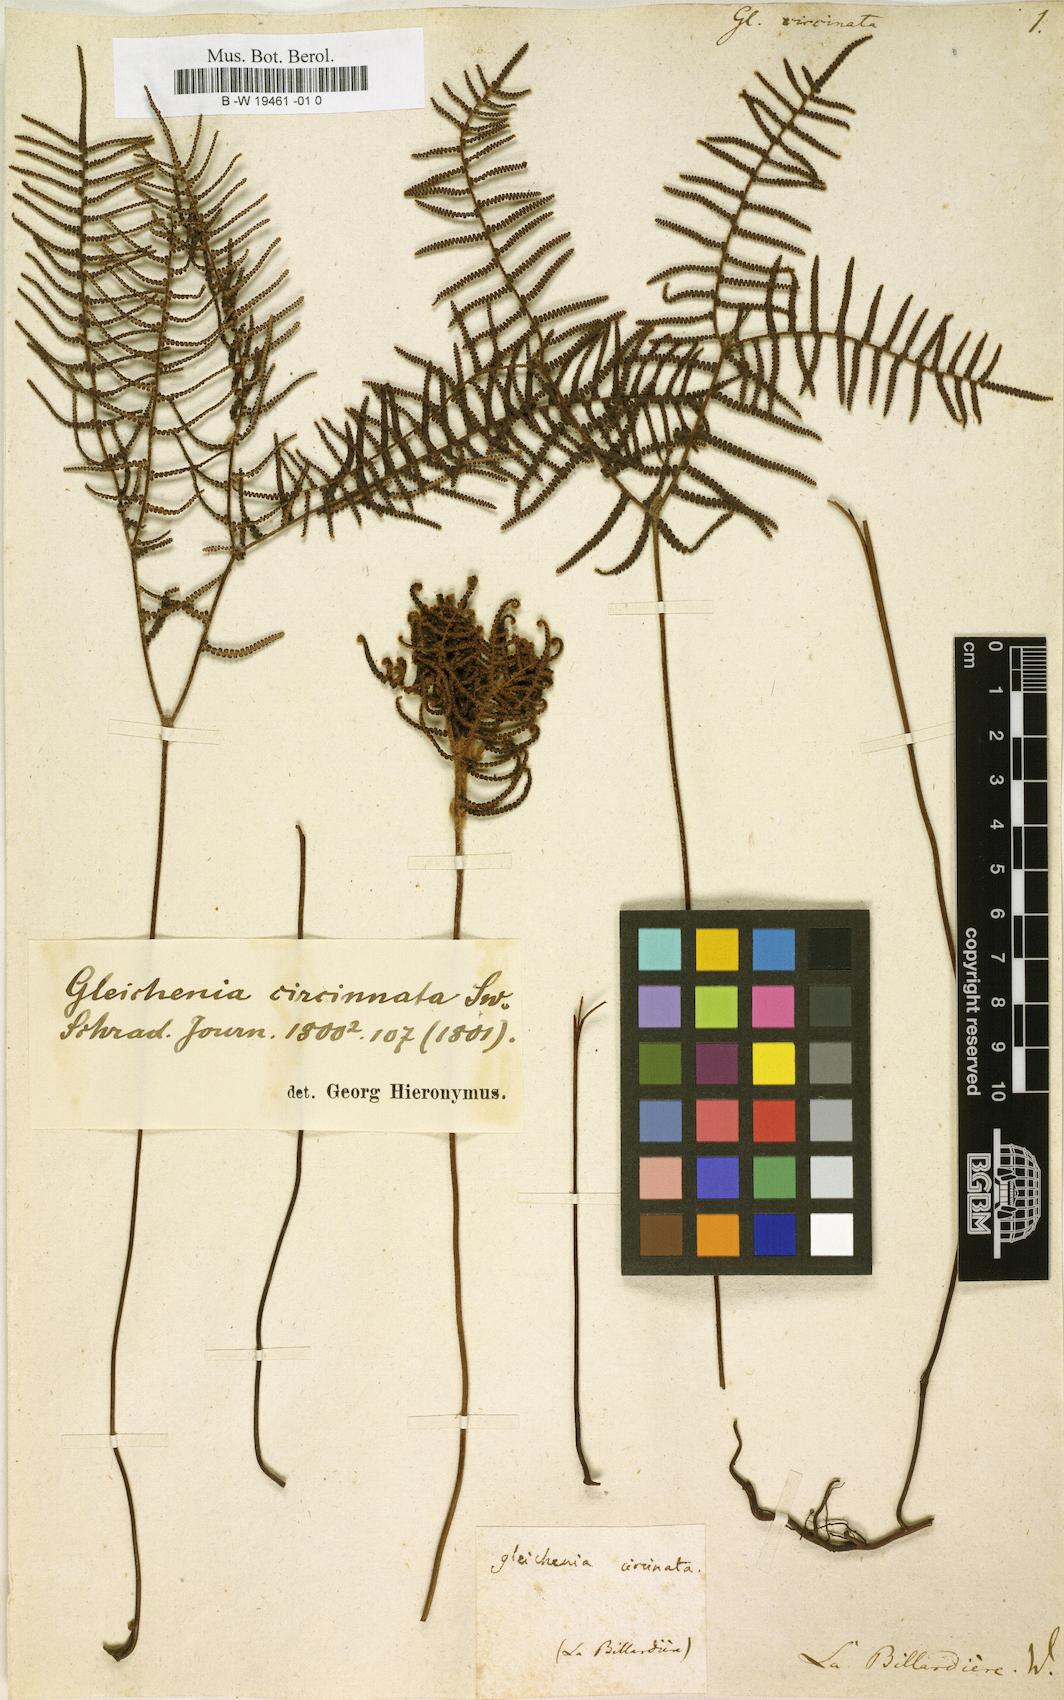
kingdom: Plantae
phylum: Tracheophyta
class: Polypodiopsida
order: Gleicheniales
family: Gleicheniaceae
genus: Gleichenia
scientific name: Gleichenia circinnata
